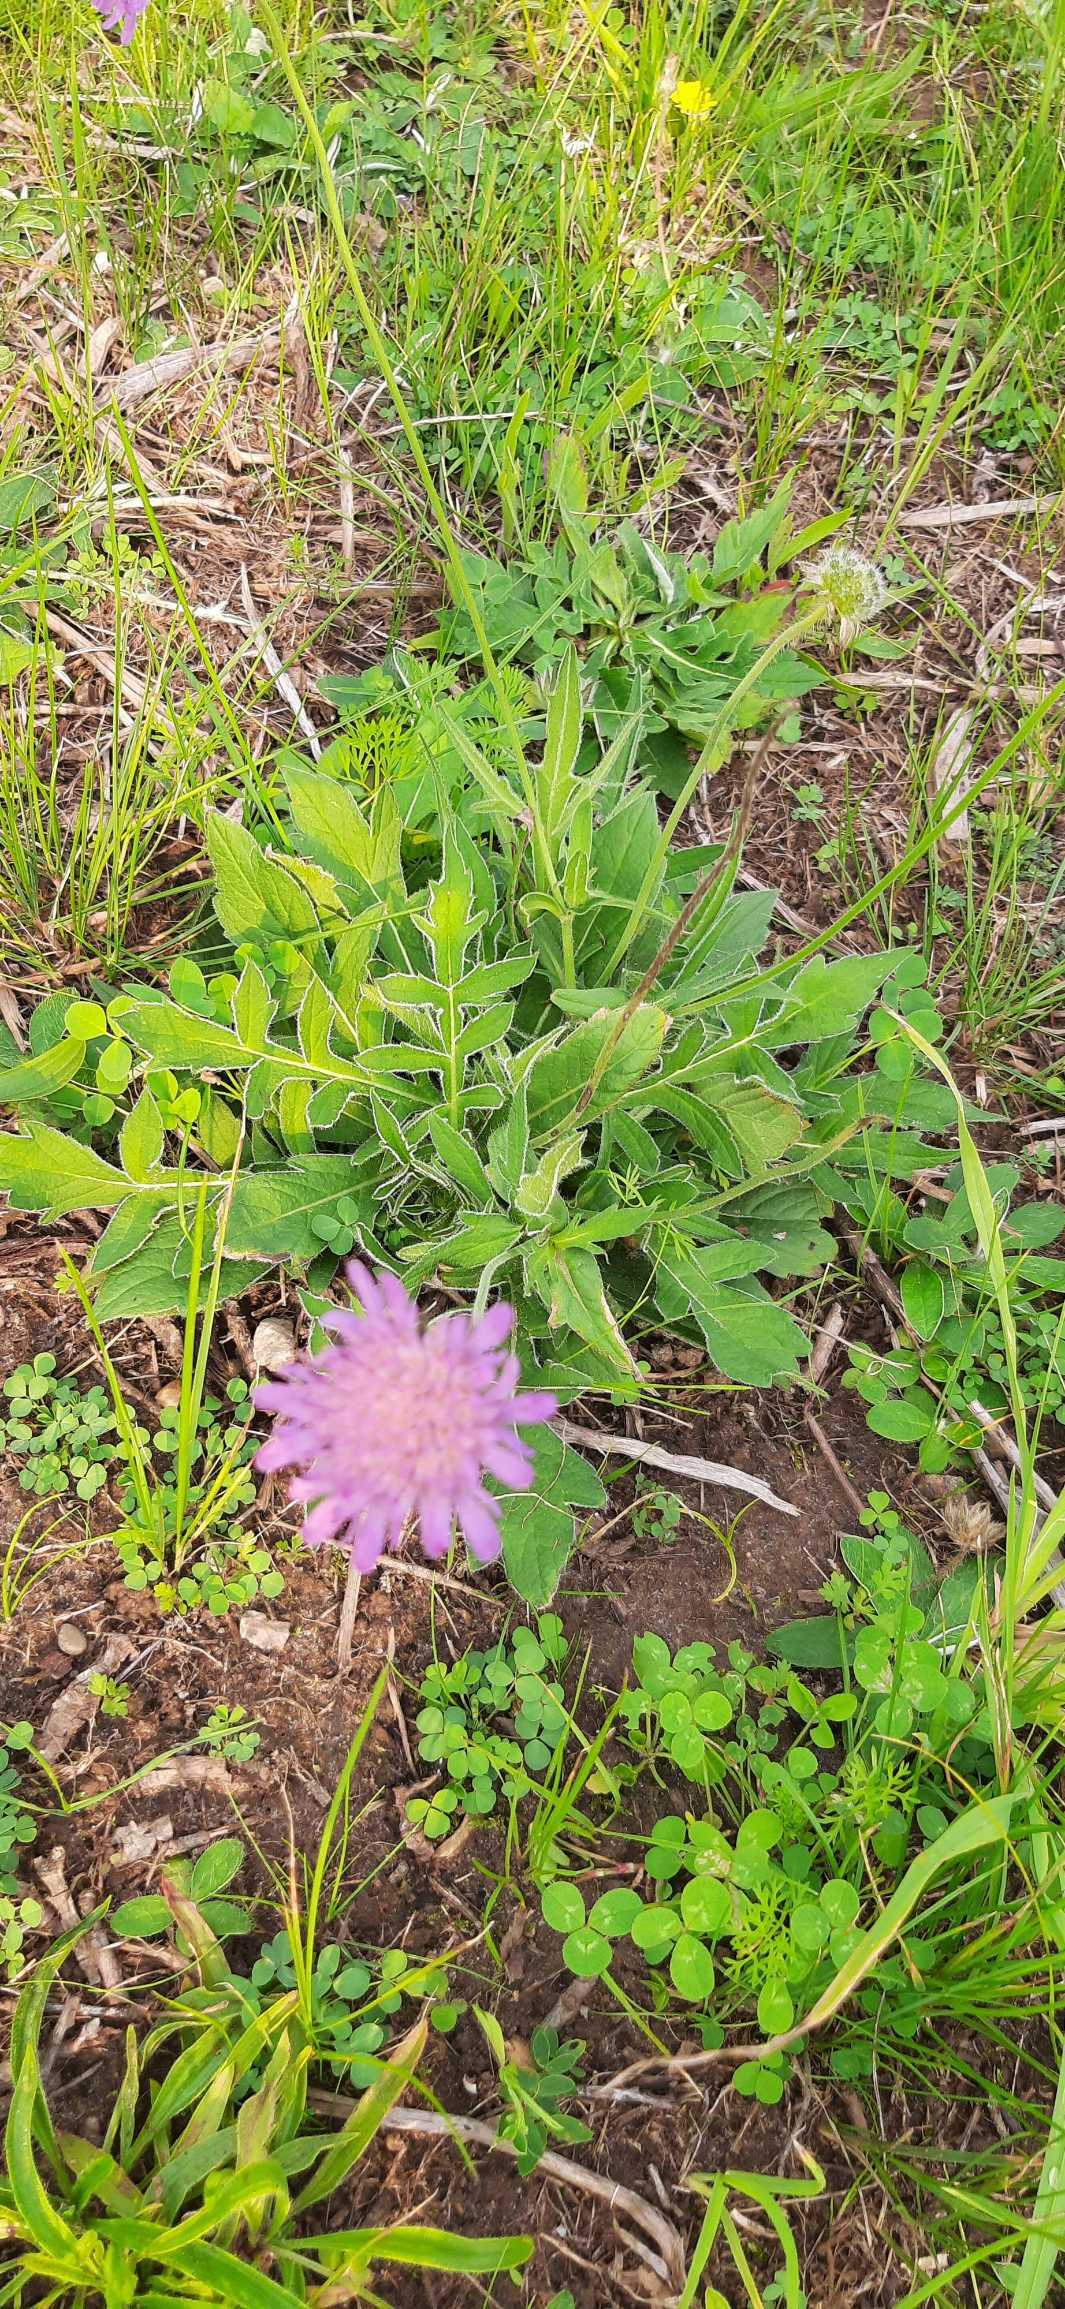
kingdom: Plantae
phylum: Tracheophyta
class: Magnoliopsida
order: Dipsacales
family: Caprifoliaceae
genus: Knautia
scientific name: Knautia arvensis
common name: Blåhat
